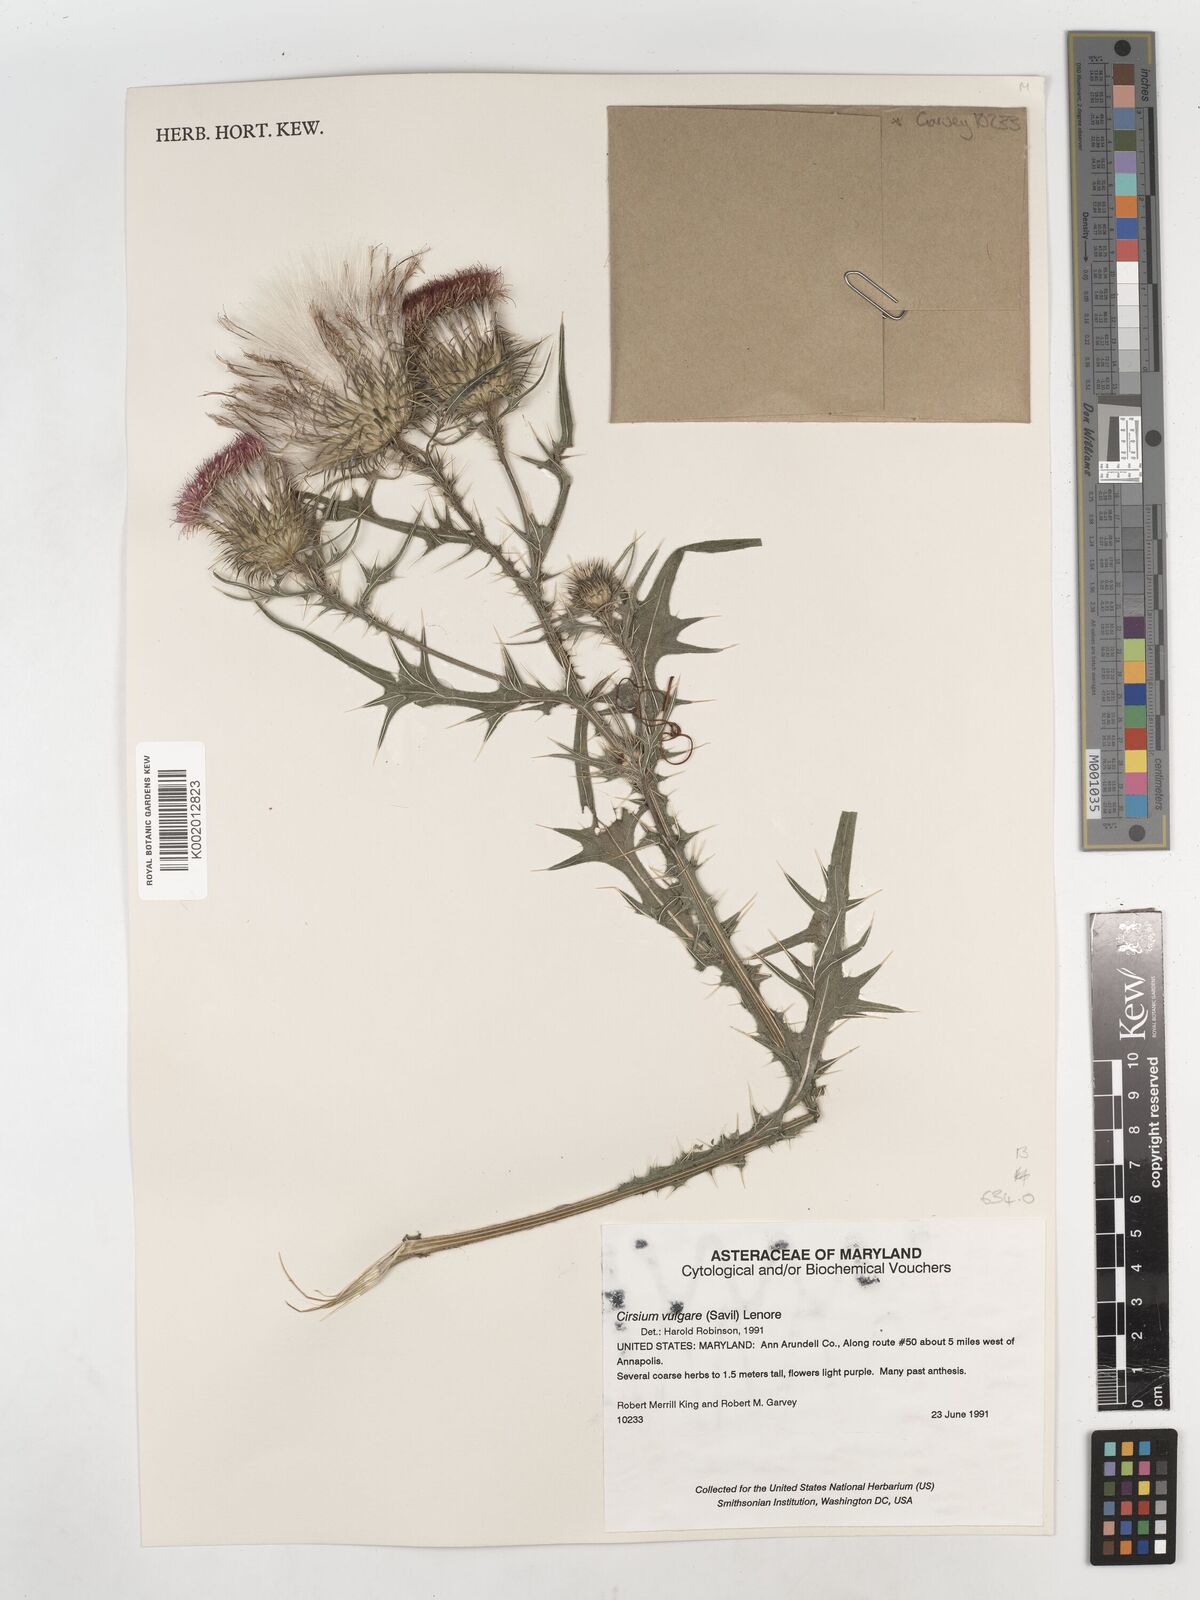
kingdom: Plantae
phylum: Tracheophyta
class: Magnoliopsida
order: Asterales
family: Asteraceae
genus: Cirsium
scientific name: Cirsium vulgare
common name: Bull thistle
